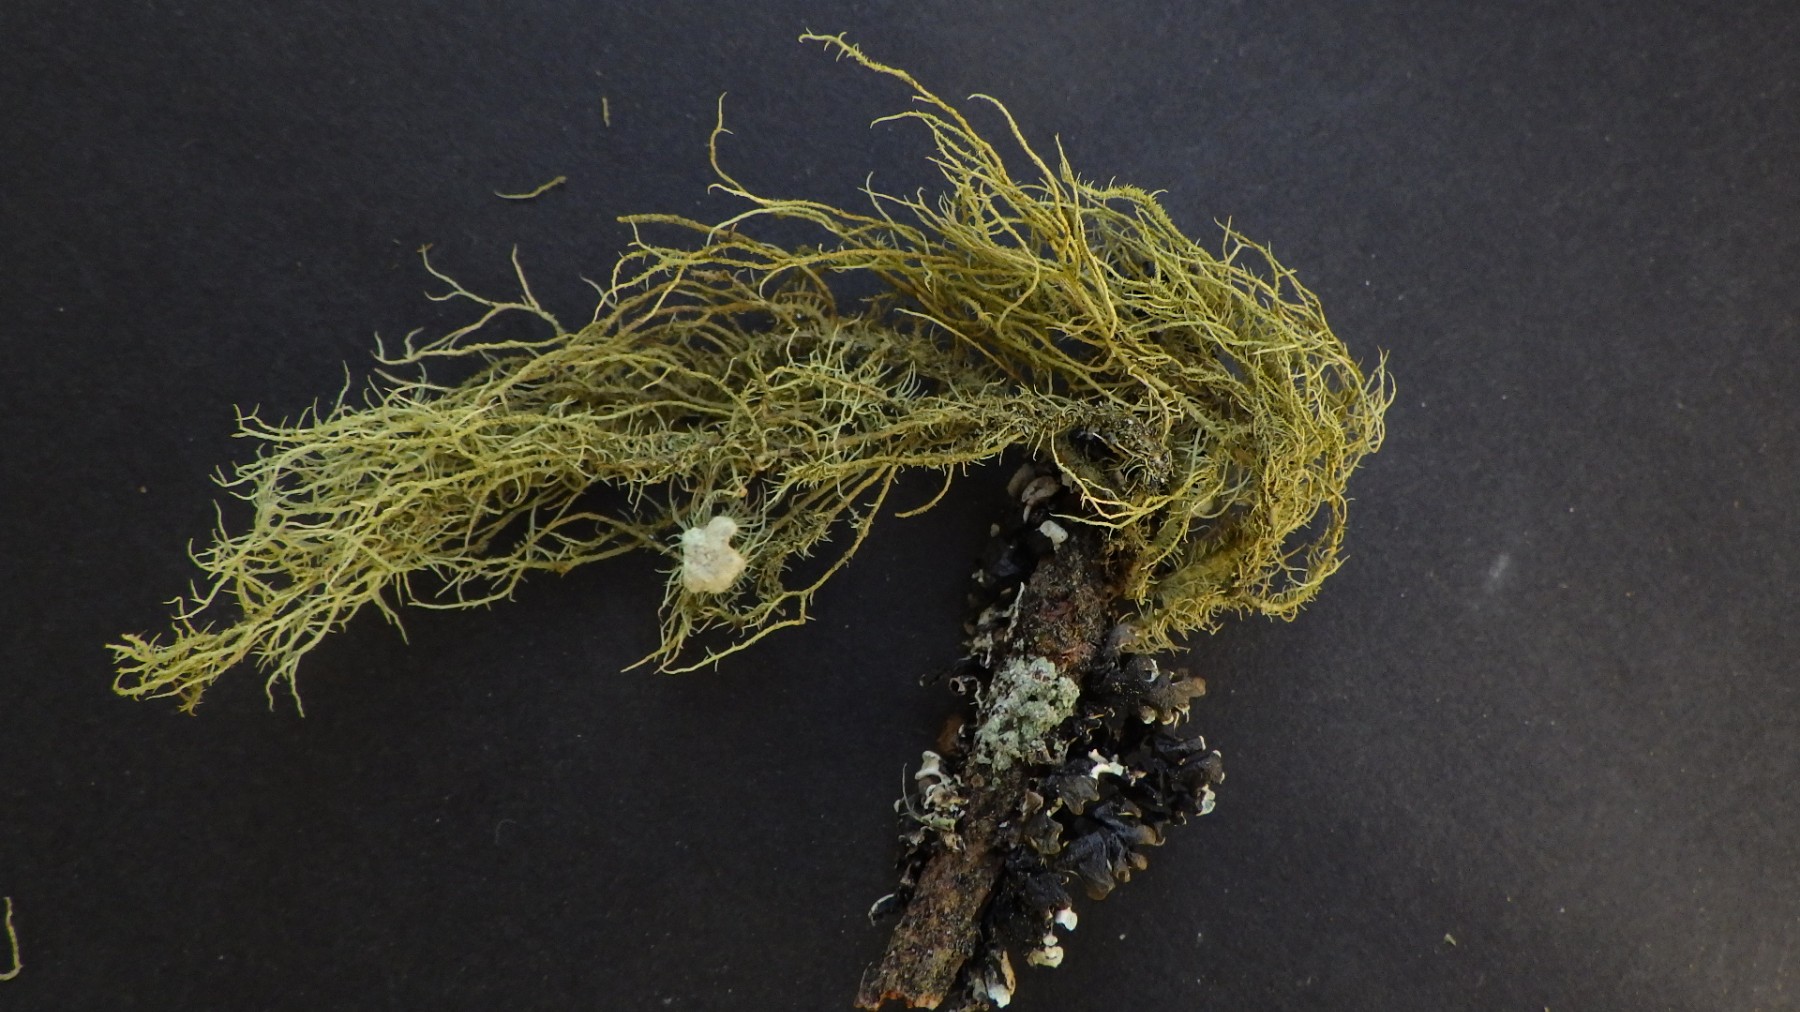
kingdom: Fungi
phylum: Ascomycota
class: Lecanoromycetes
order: Lecanorales
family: Parmeliaceae
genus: Usnea
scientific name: Usnea hirta
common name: liden skæglav
